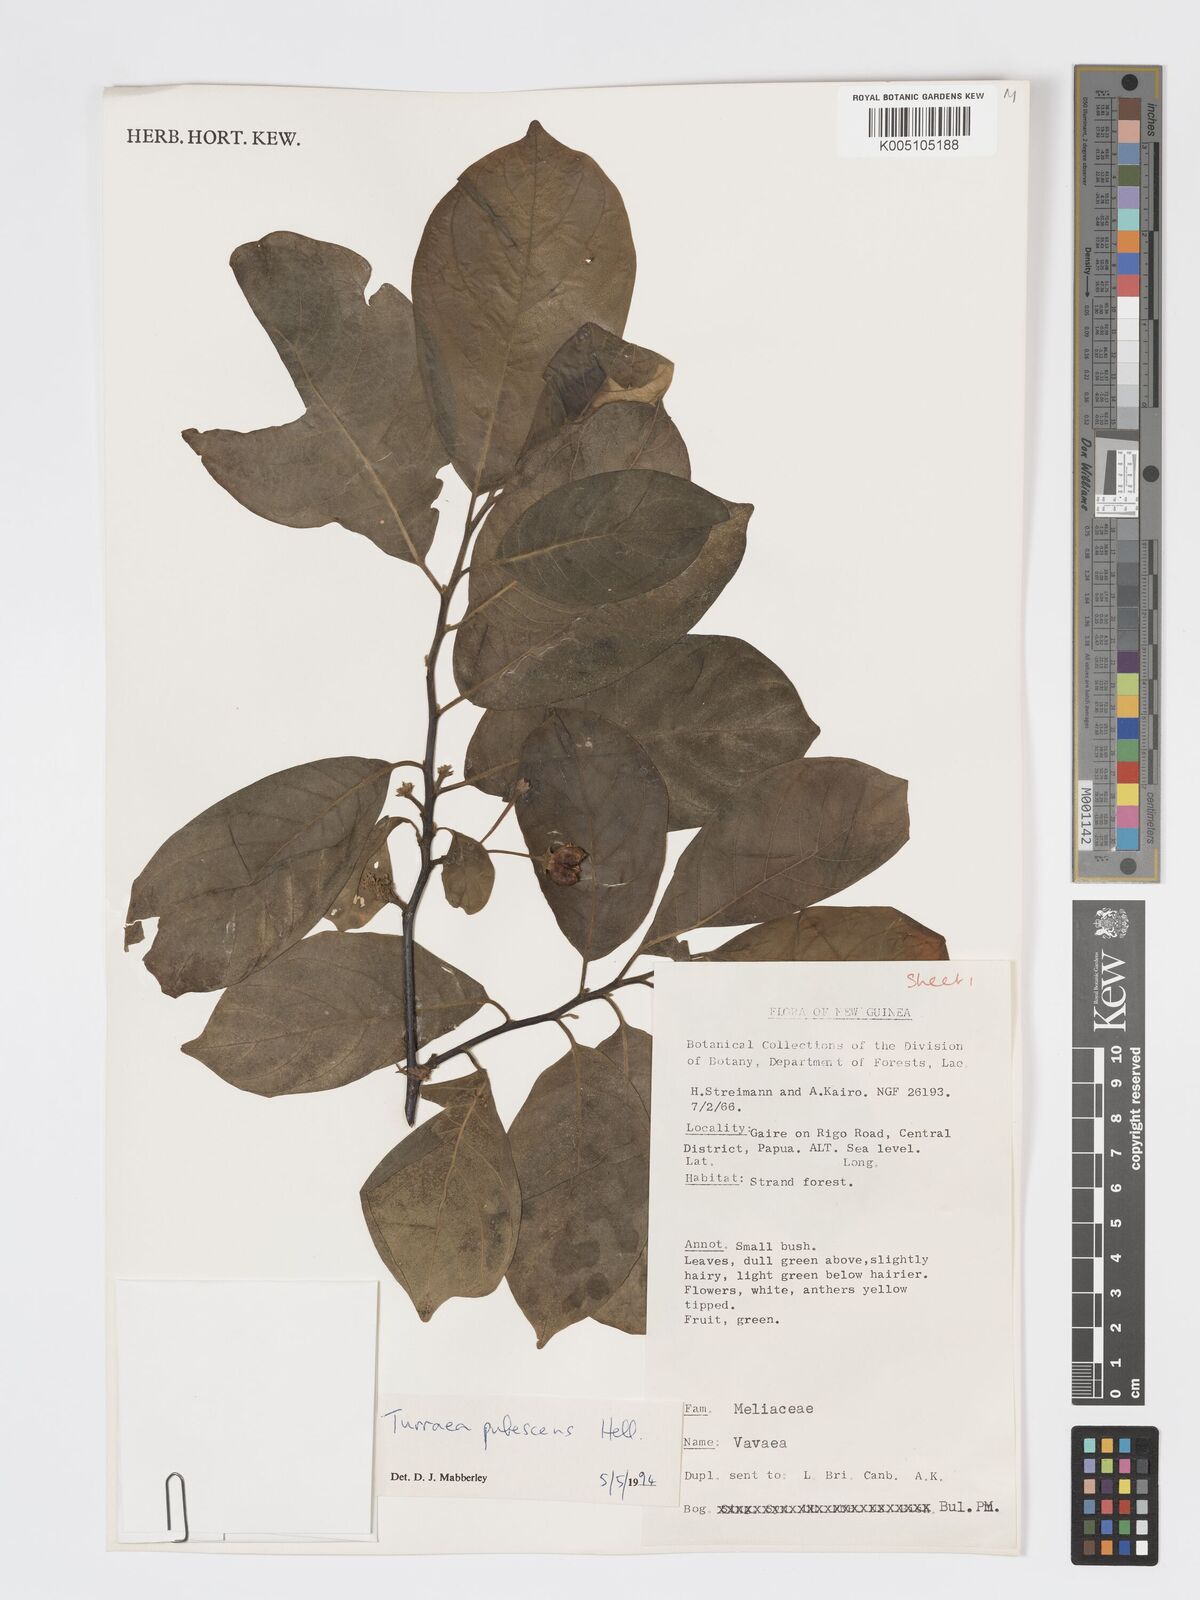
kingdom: Plantae
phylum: Tracheophyta
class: Magnoliopsida
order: Sapindales
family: Meliaceae
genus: Turraea
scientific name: Turraea
